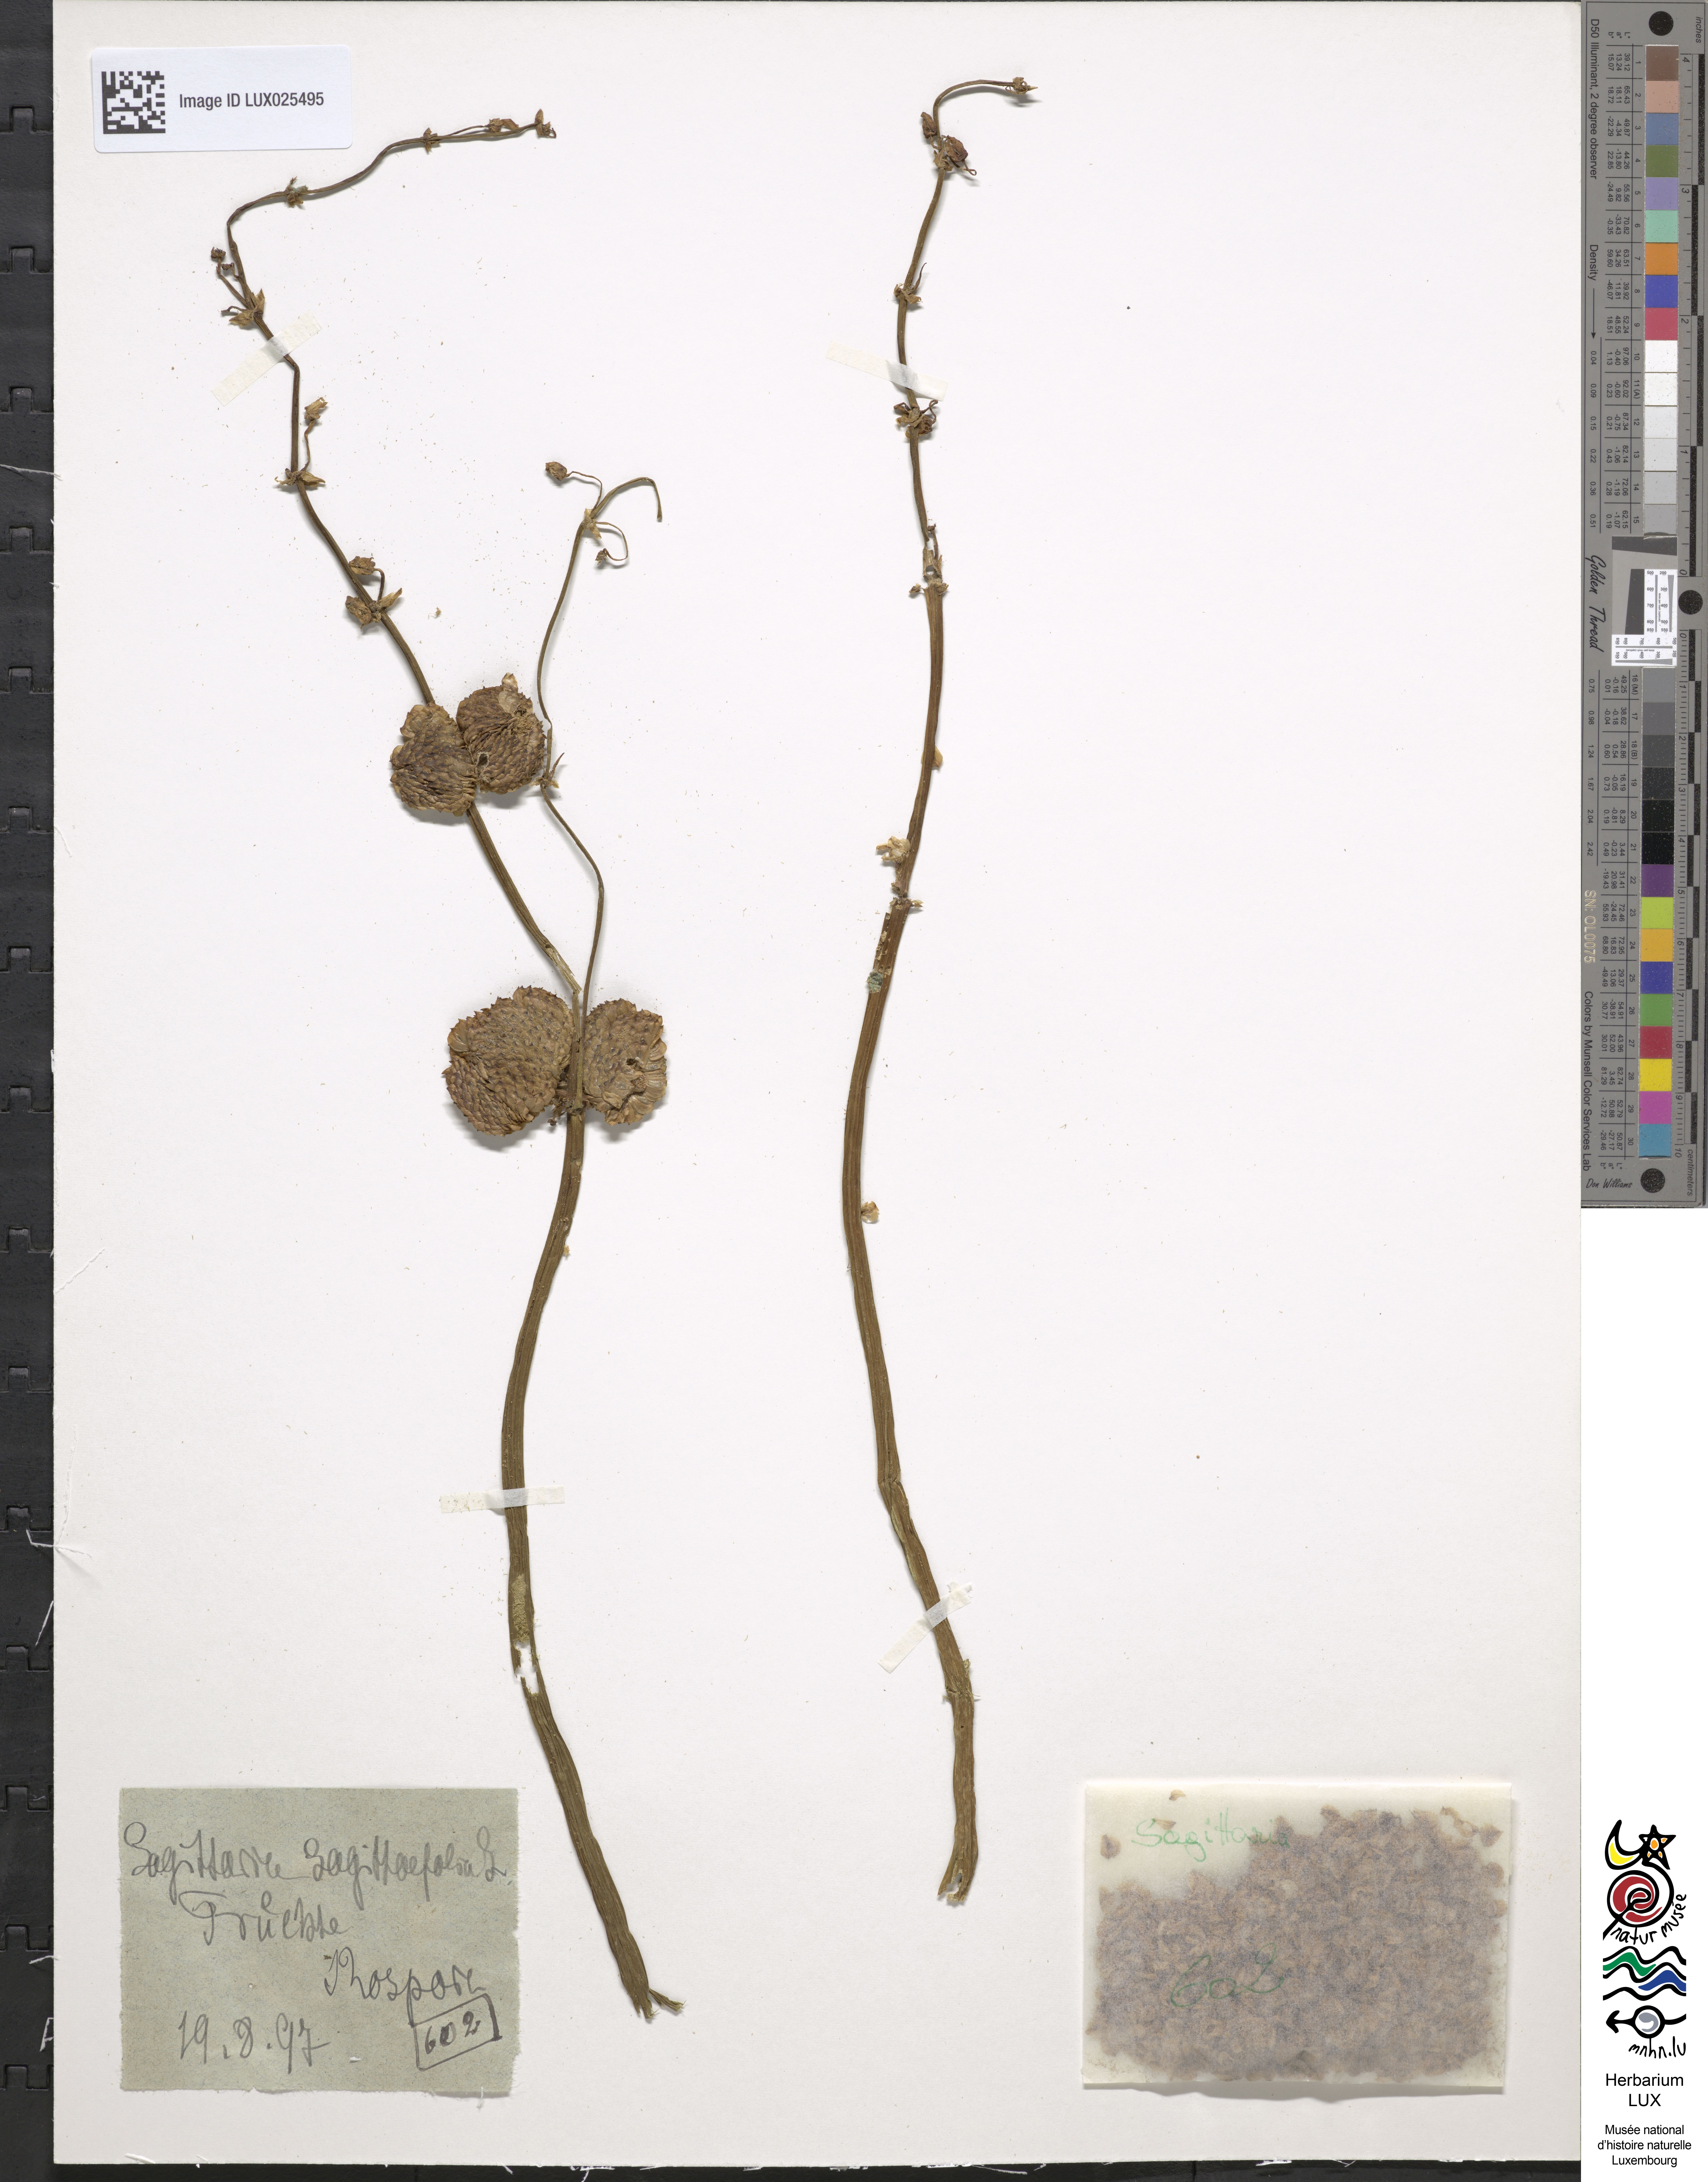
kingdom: Plantae
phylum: Tracheophyta
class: Liliopsida
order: Alismatales
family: Alismataceae
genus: Sagittaria
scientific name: Sagittaria sagittifolia
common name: Arrowhead
